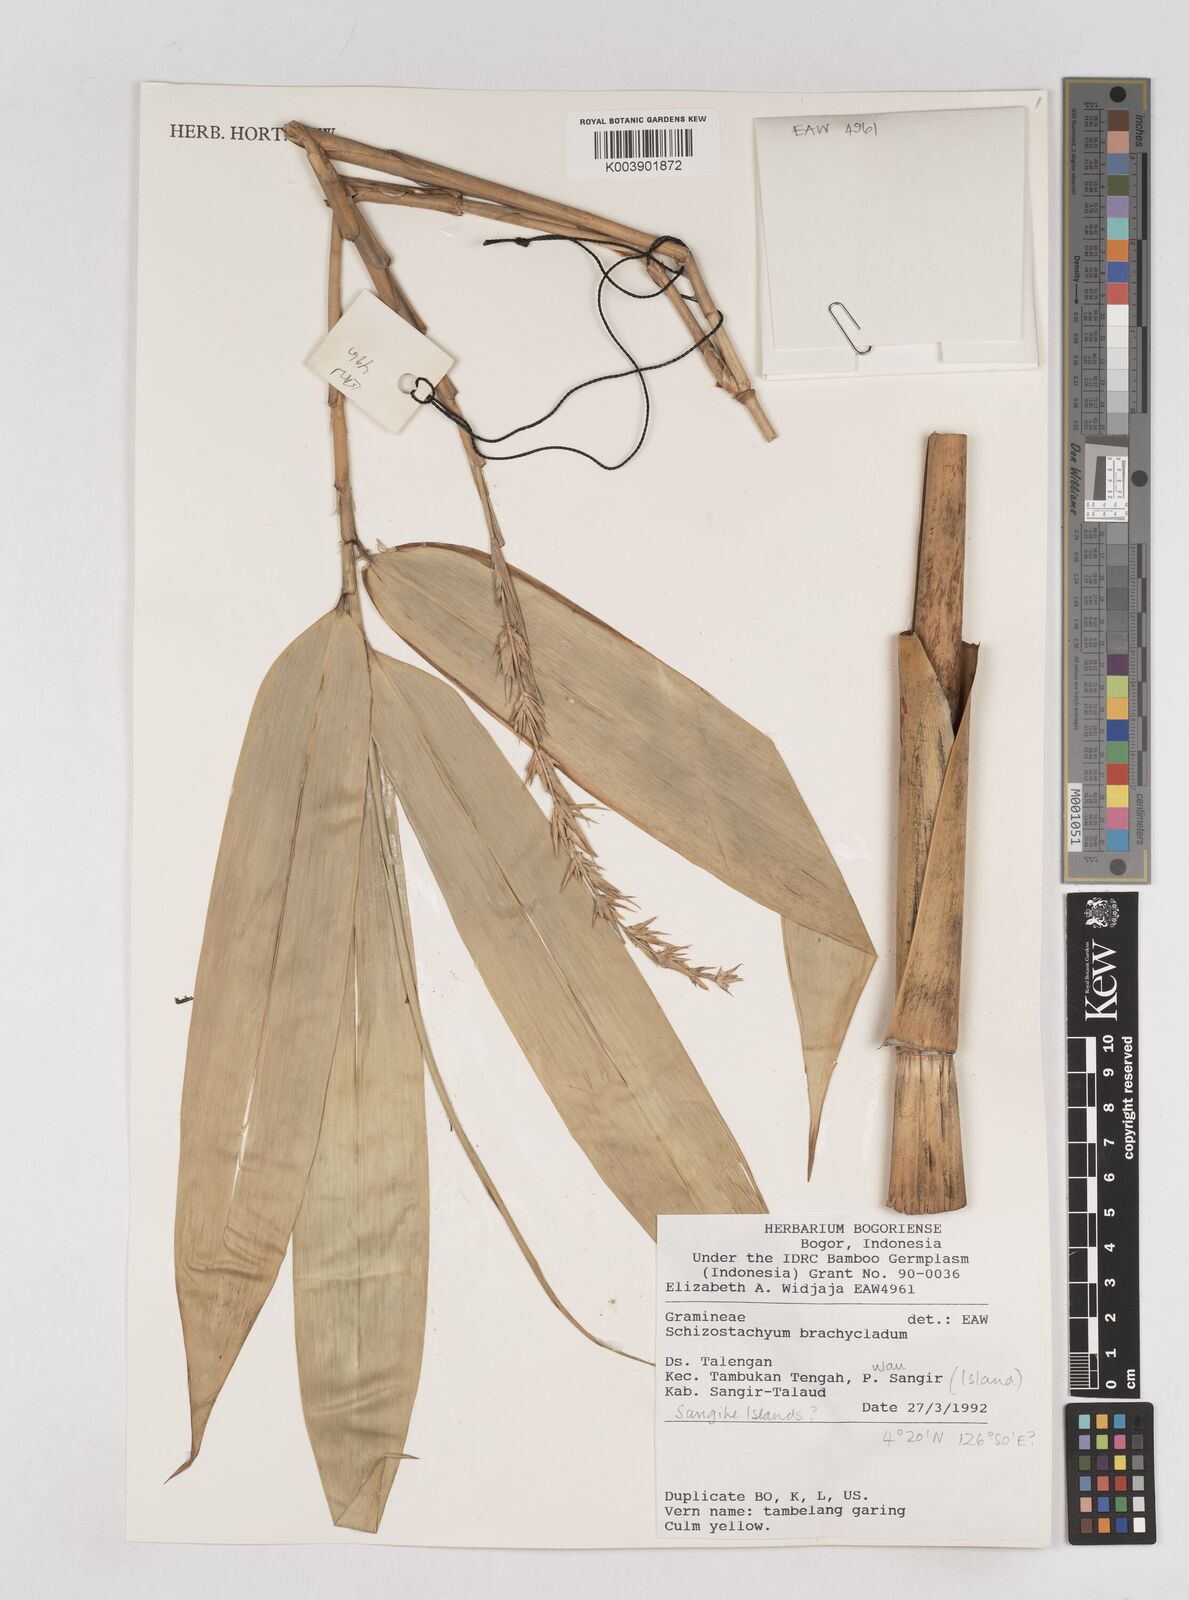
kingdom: Plantae
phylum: Tracheophyta
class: Liliopsida
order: Poales
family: Poaceae
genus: Schizostachyum
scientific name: Schizostachyum brachycladum
